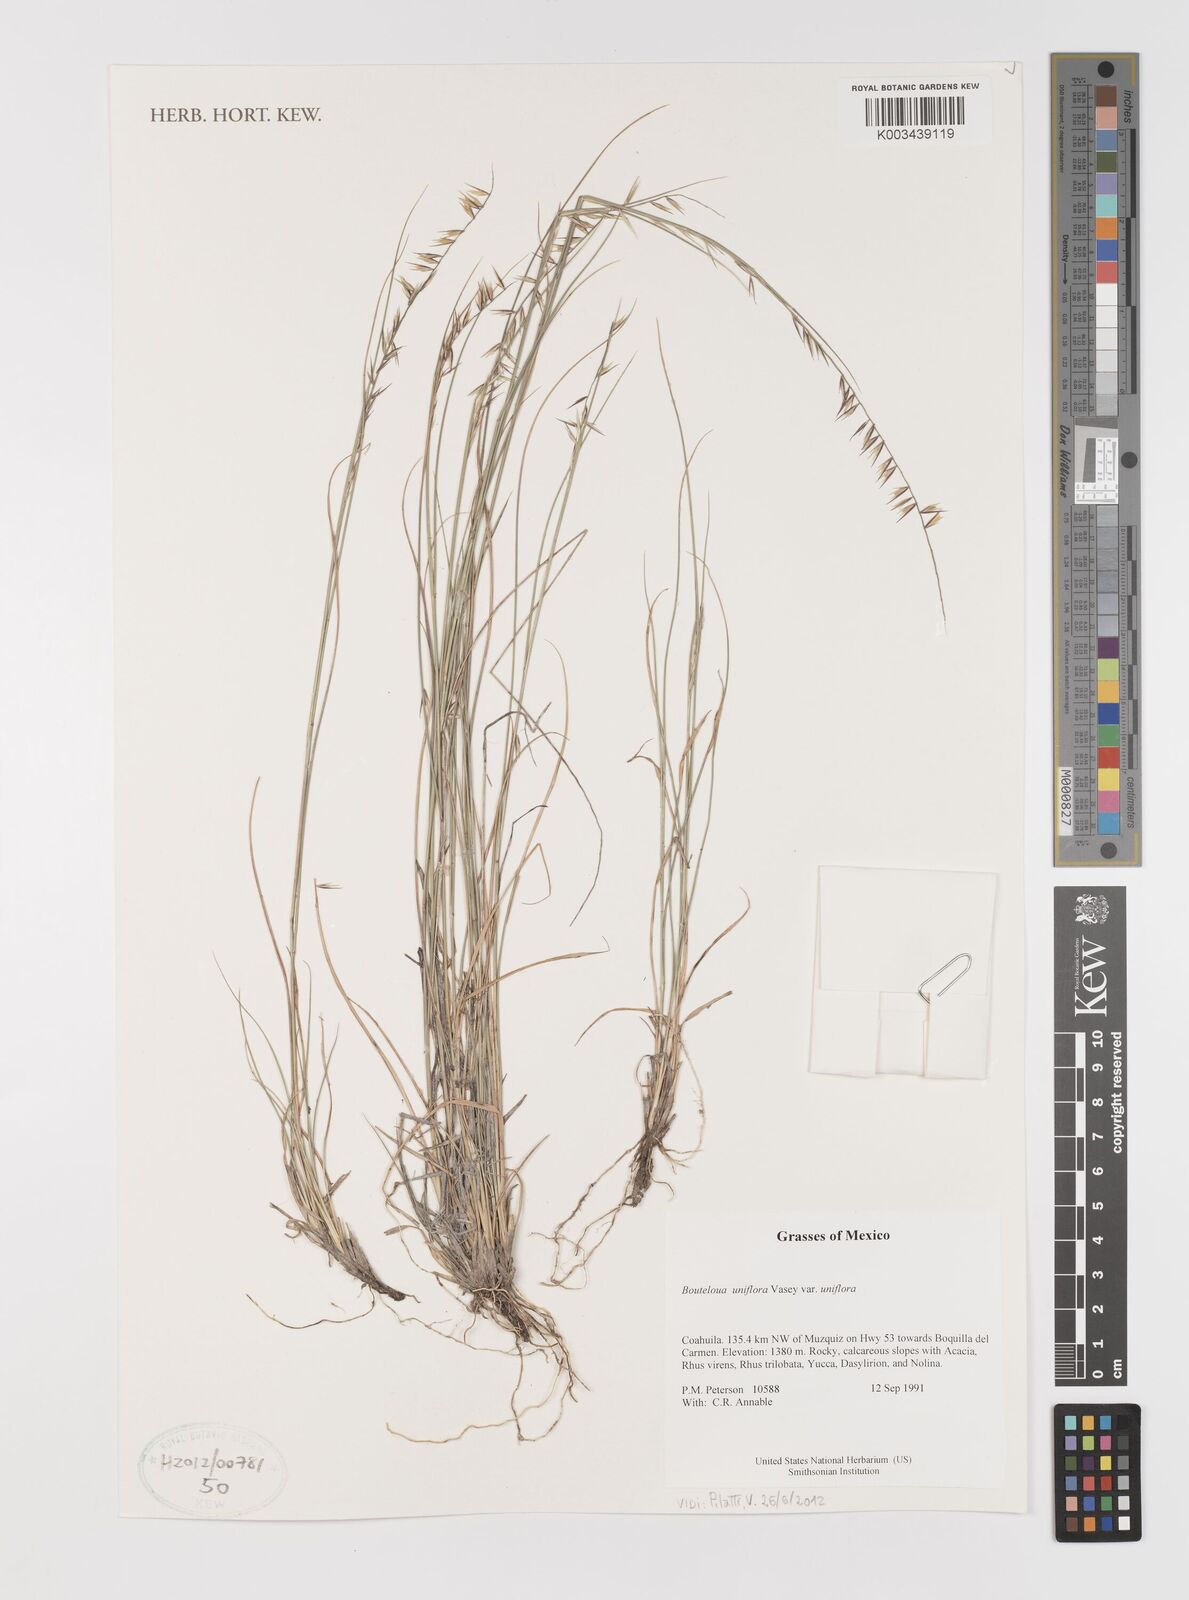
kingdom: Plantae
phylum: Tracheophyta
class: Liliopsida
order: Poales
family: Poaceae
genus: Bouteloua
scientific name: Bouteloua uniflora
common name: Neally's grama
